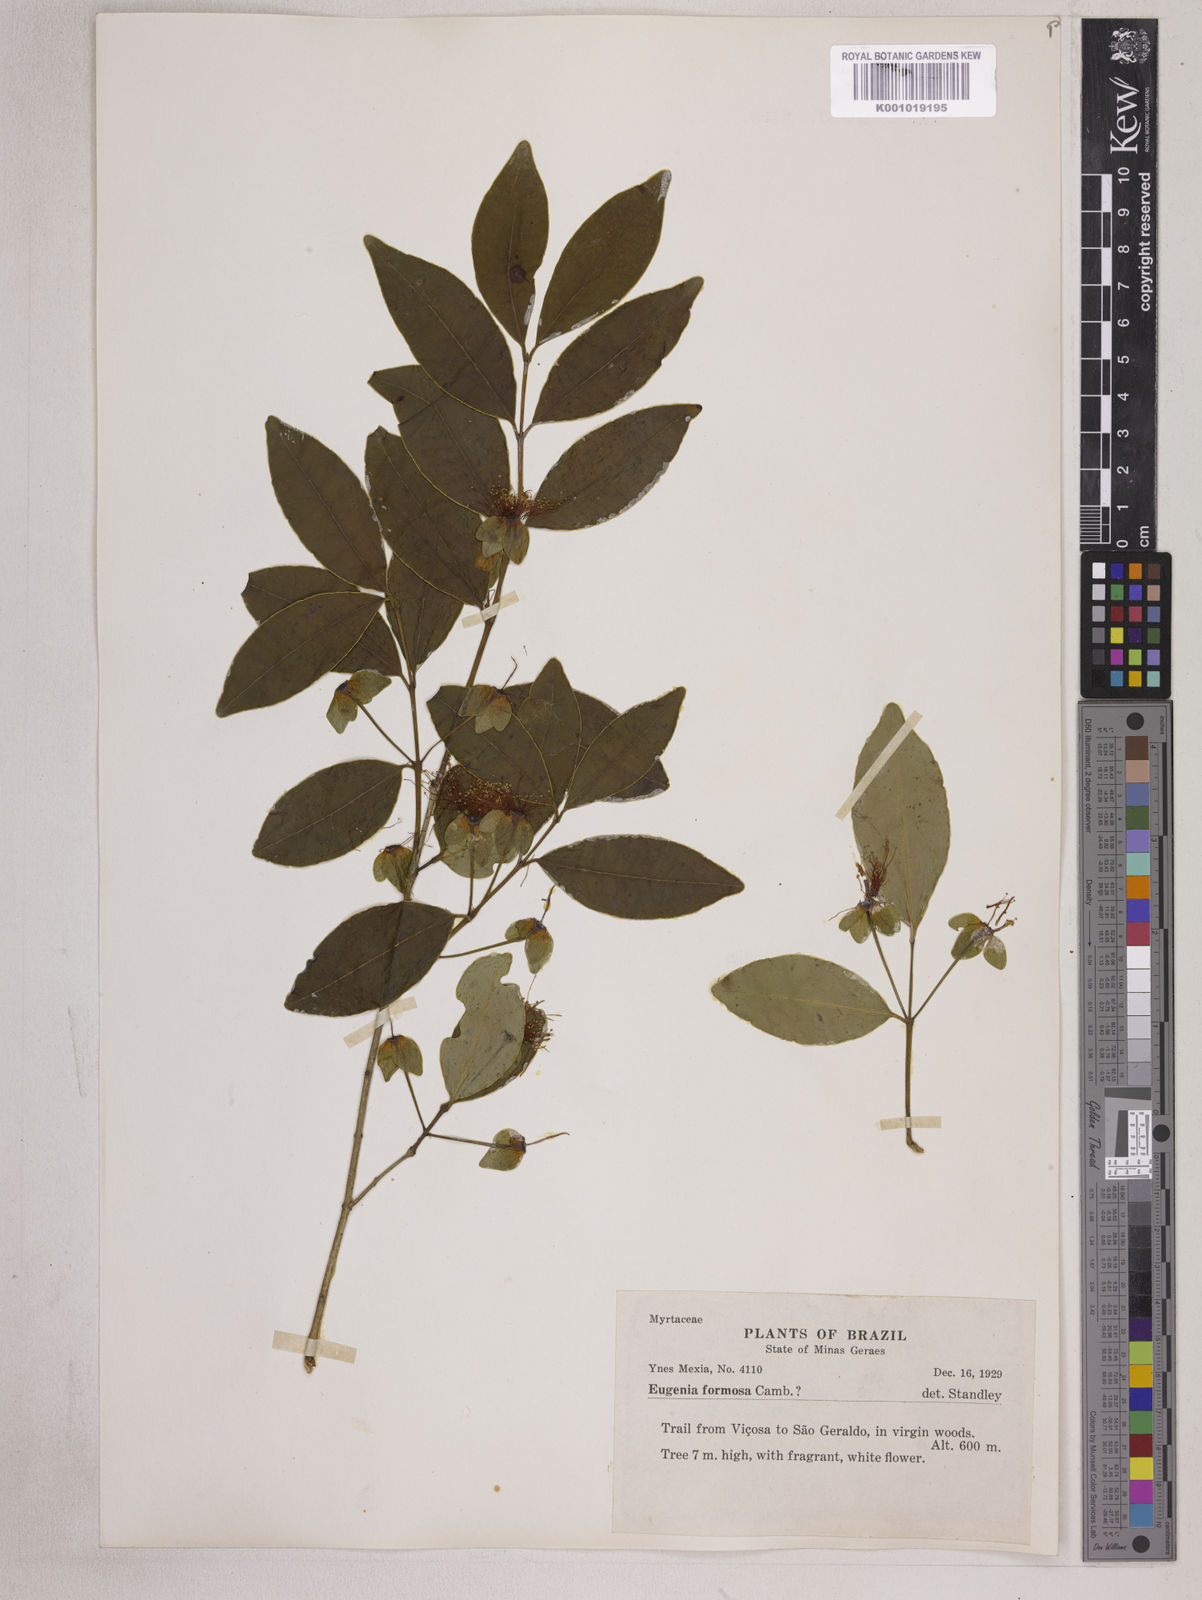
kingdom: Plantae
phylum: Tracheophyta
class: Magnoliopsida
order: Myrtales
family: Myrtaceae
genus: Eugenia
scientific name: Eugenia neoformosa
